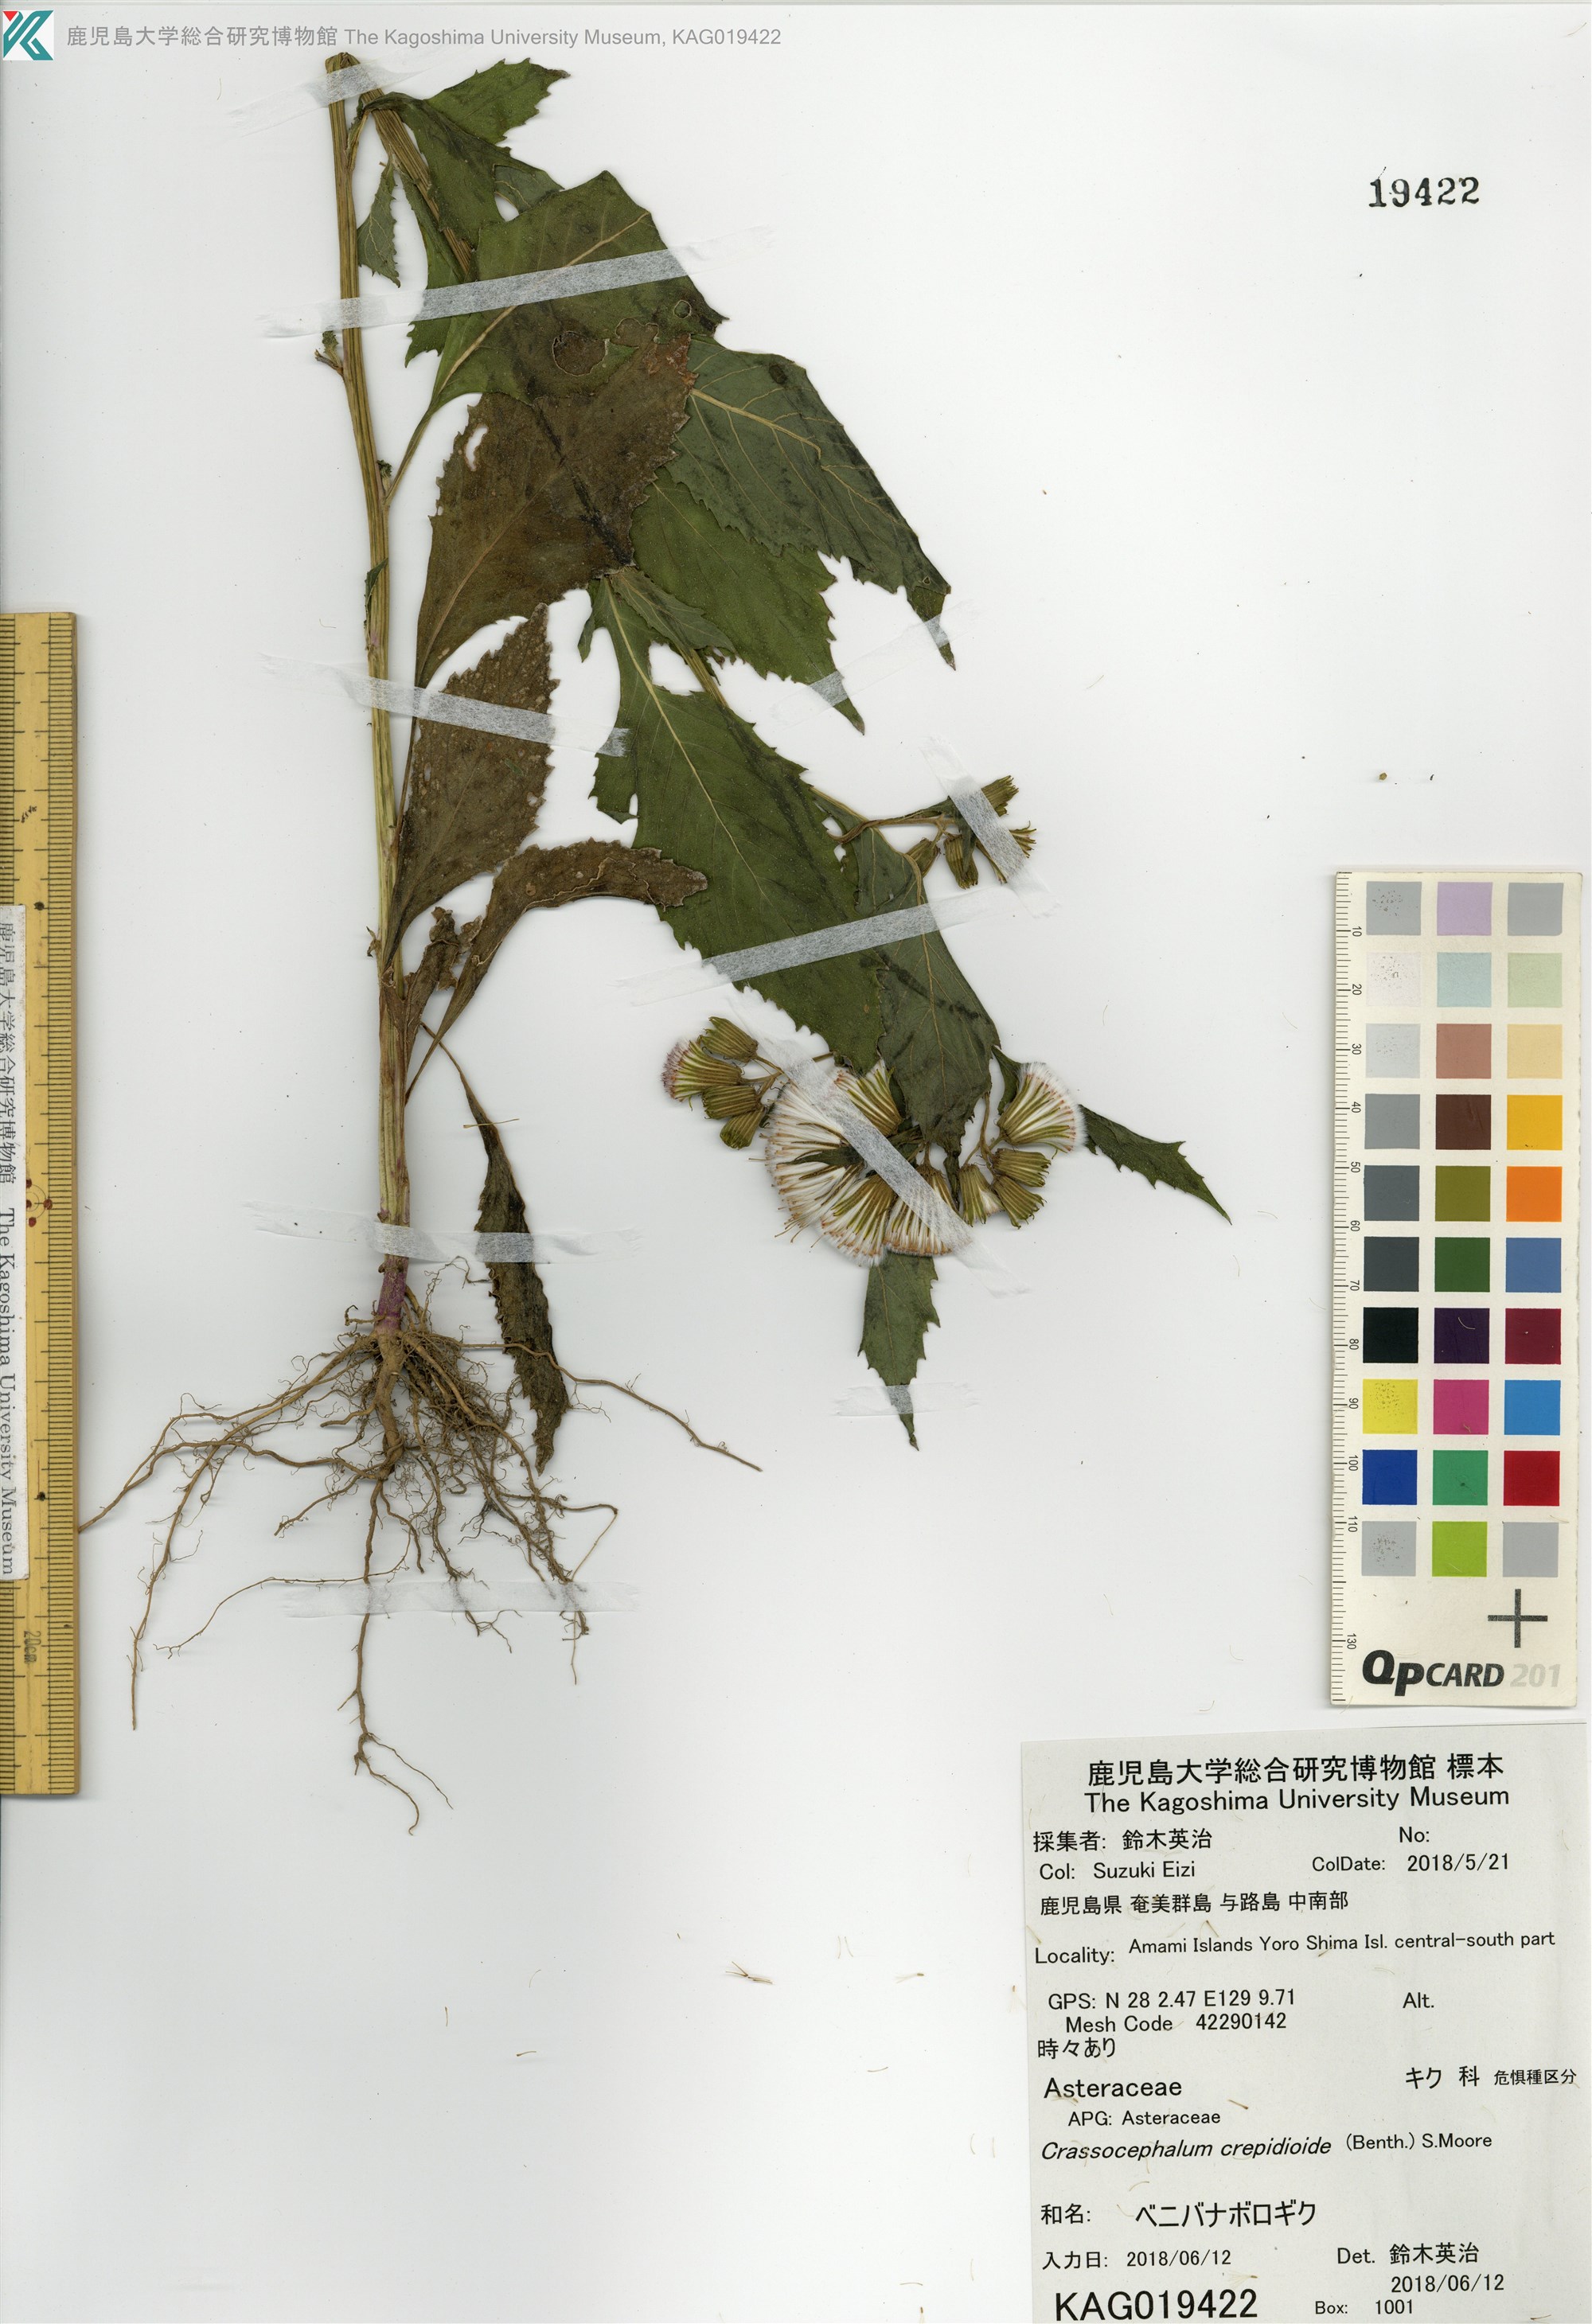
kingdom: Plantae
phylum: Tracheophyta
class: Magnoliopsida
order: Asterales
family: Asteraceae
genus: Crassocephalum
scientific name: Crassocephalum crepidioides
